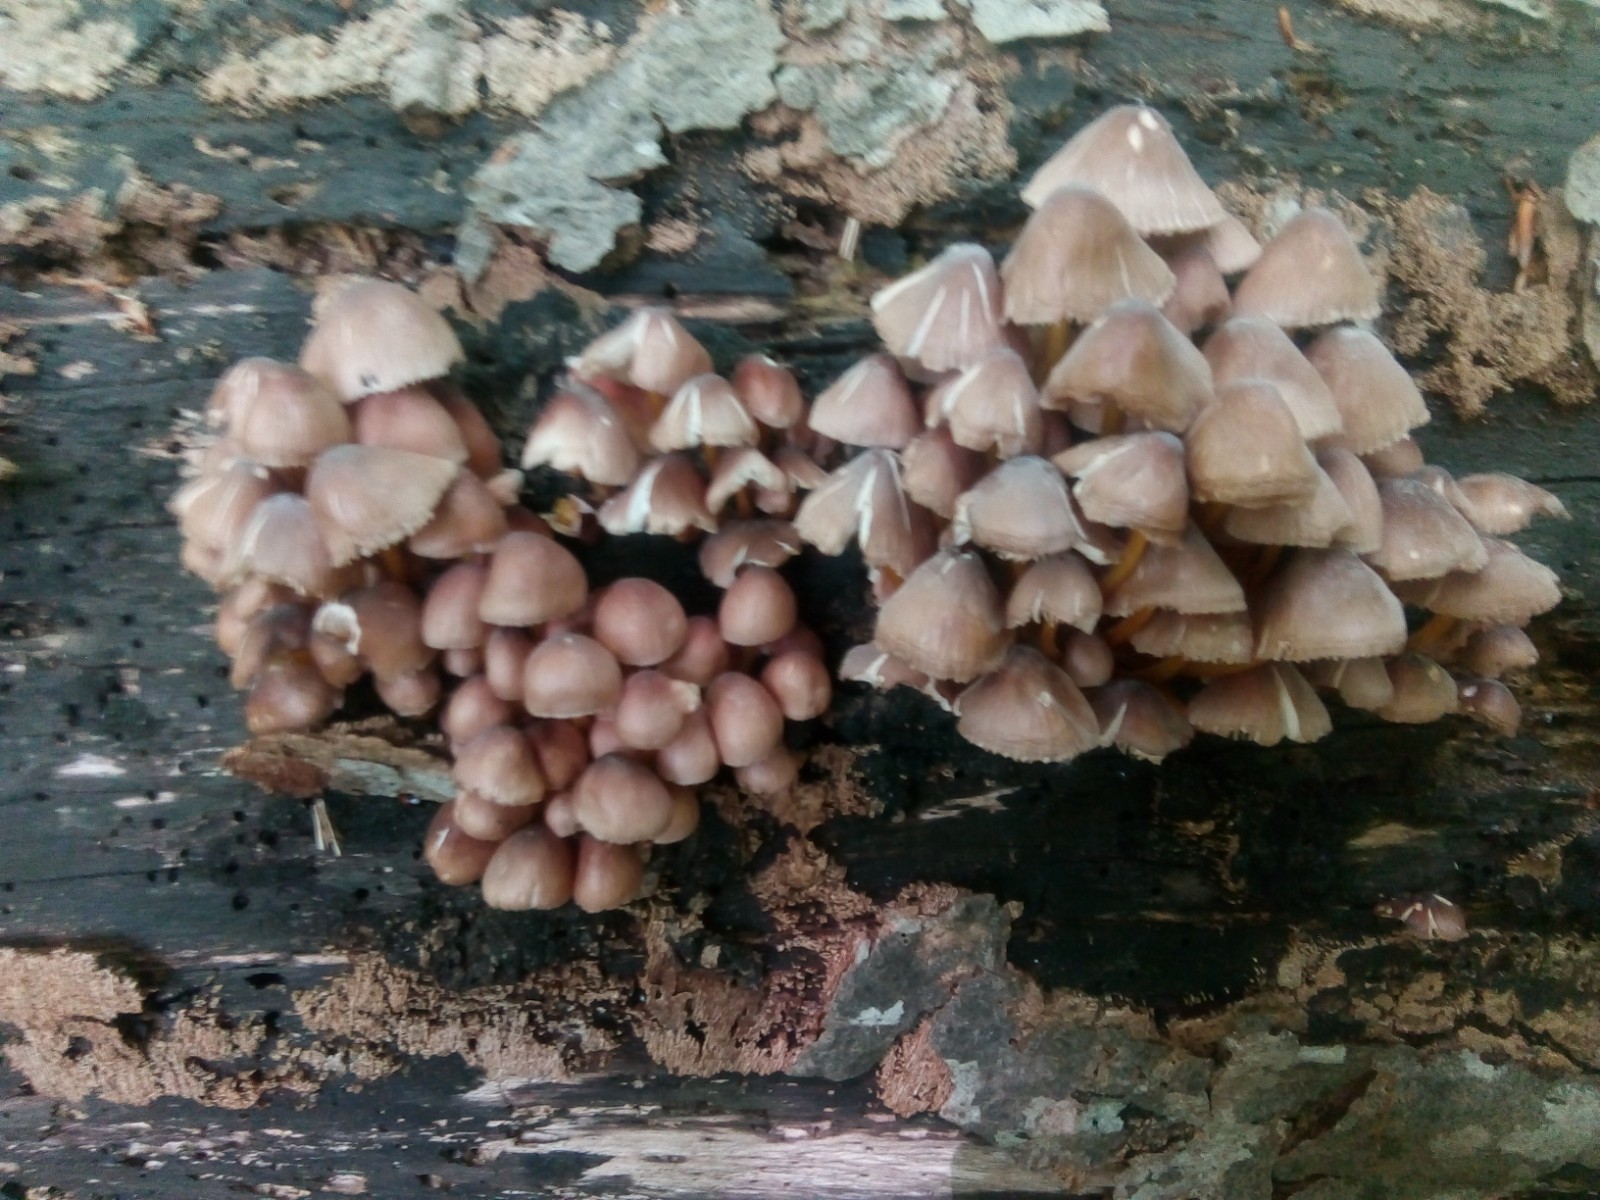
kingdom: Fungi
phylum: Basidiomycota
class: Agaricomycetes
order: Agaricales
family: Mycenaceae
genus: Mycena
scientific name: Mycena renati
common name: smuk huesvamp
